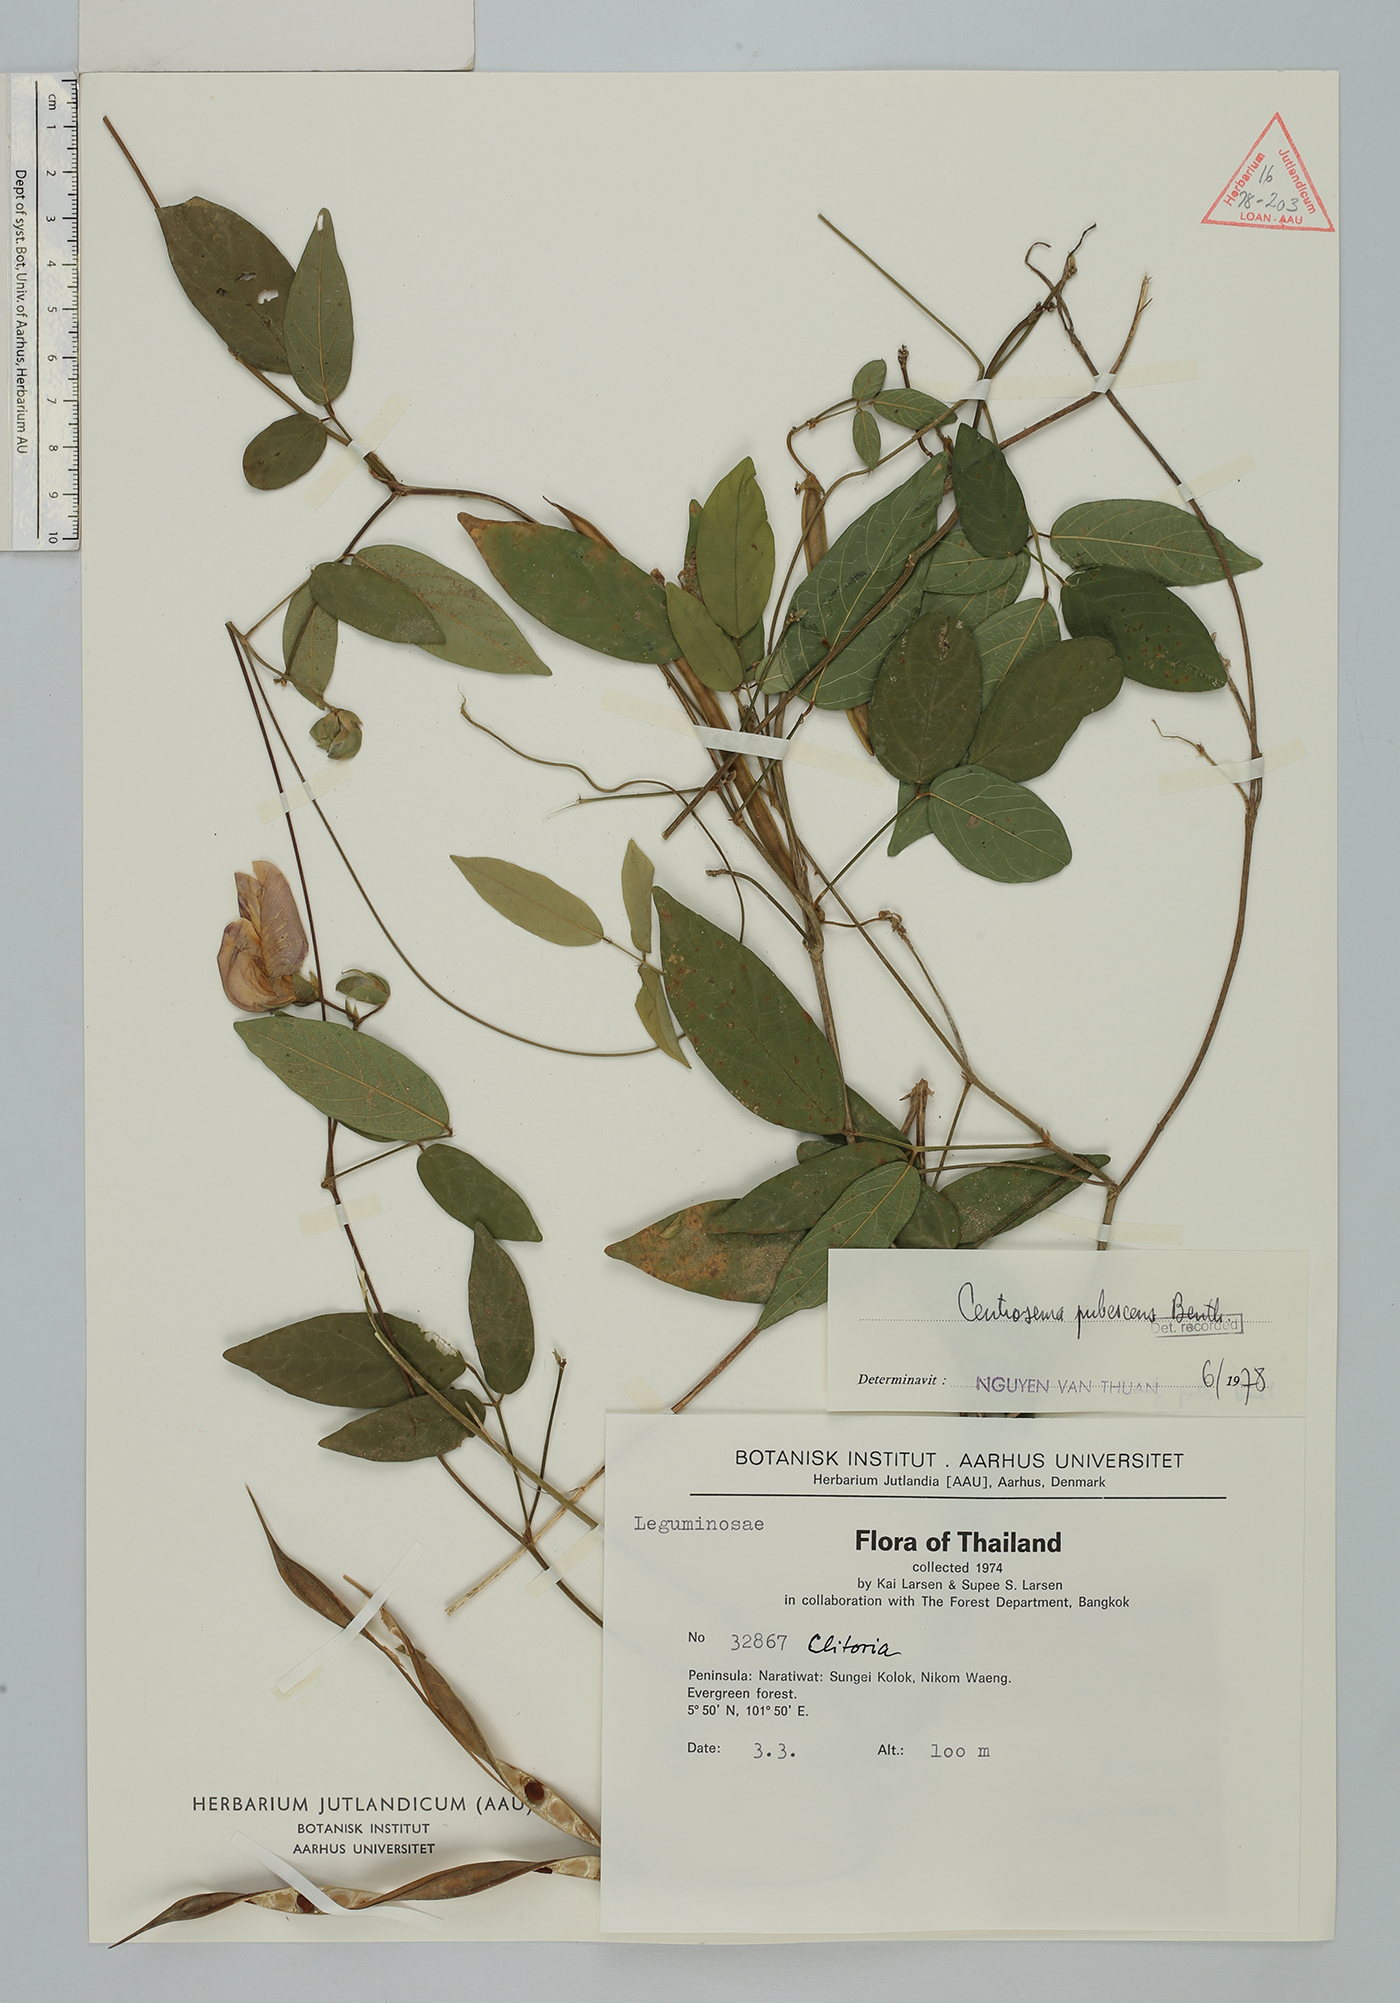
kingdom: Plantae
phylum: Tracheophyta
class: Magnoliopsida
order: Fabales
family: Fabaceae
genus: Centrosema
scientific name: Centrosema pubescens
